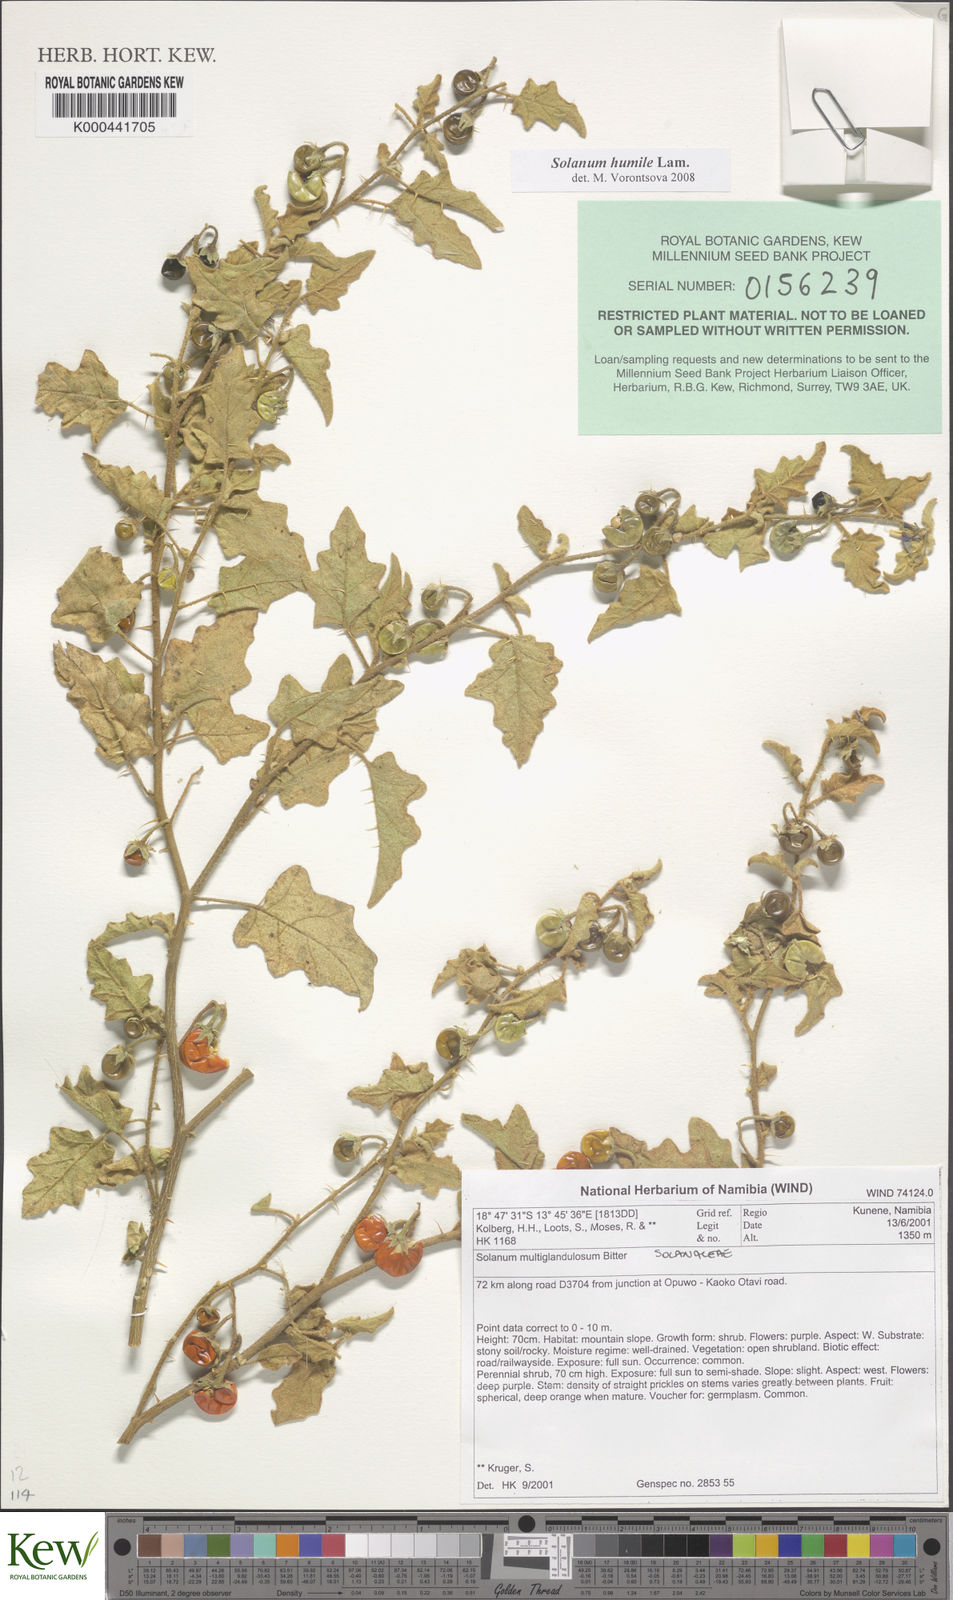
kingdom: Plantae
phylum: Tracheophyta
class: Magnoliopsida
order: Solanales
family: Solanaceae
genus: Solanum
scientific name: Solanum humile
